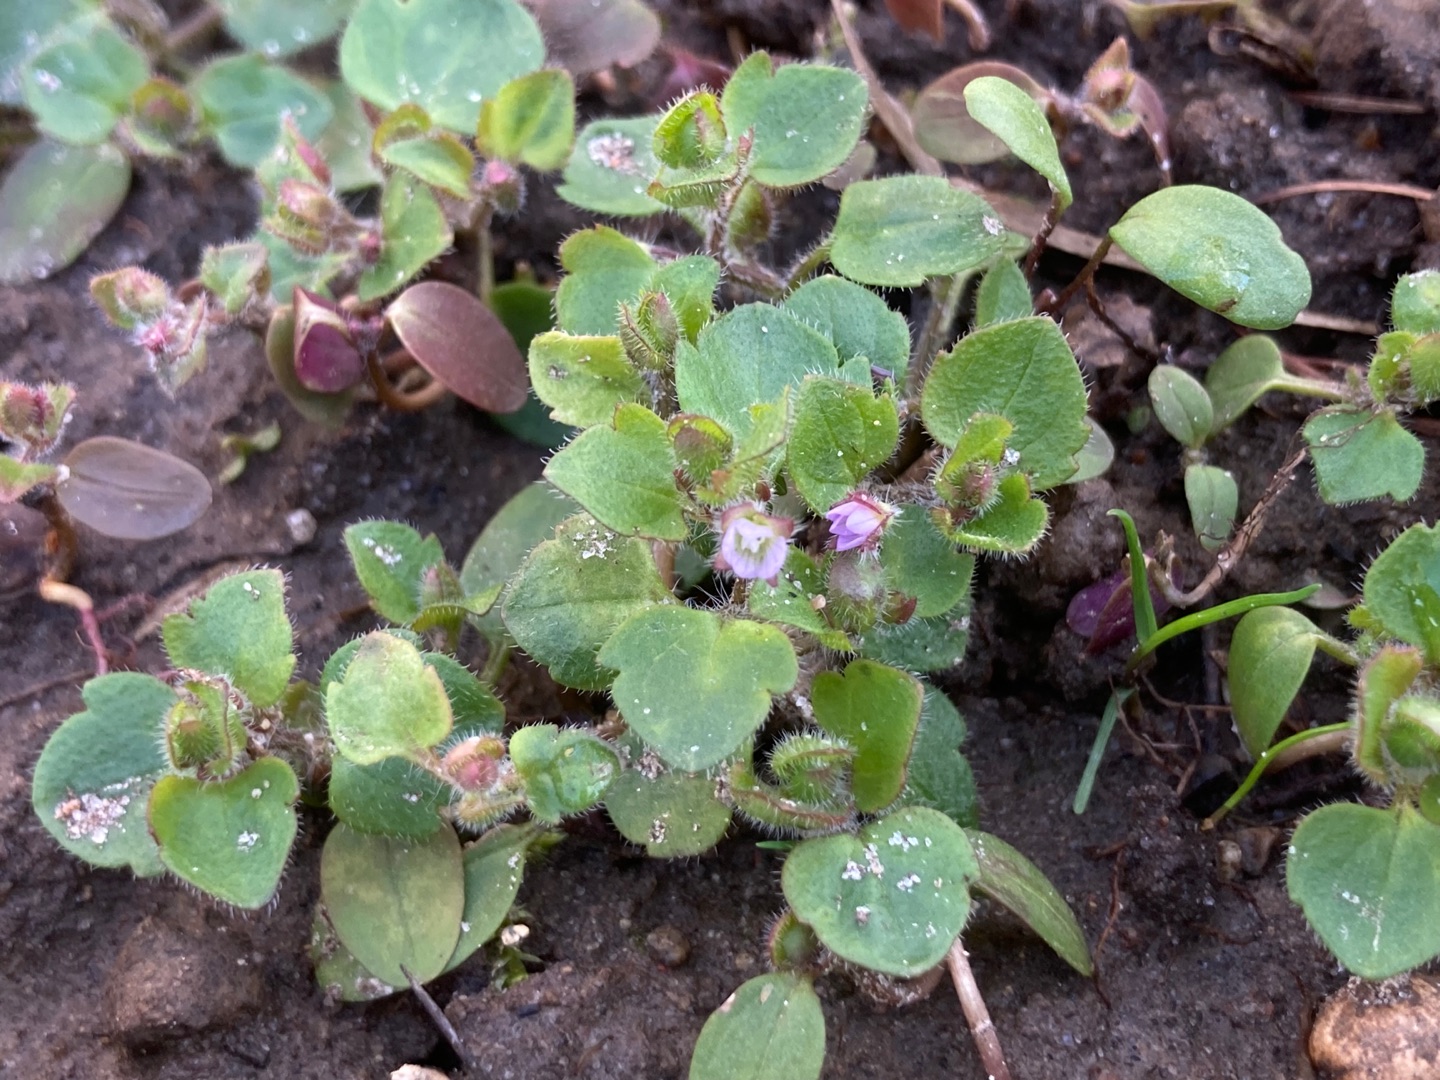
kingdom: Plantae
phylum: Tracheophyta
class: Magnoliopsida
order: Lamiales
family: Plantaginaceae
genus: Veronica
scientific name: Veronica hederifolia
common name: Vedbend-ærenpris
